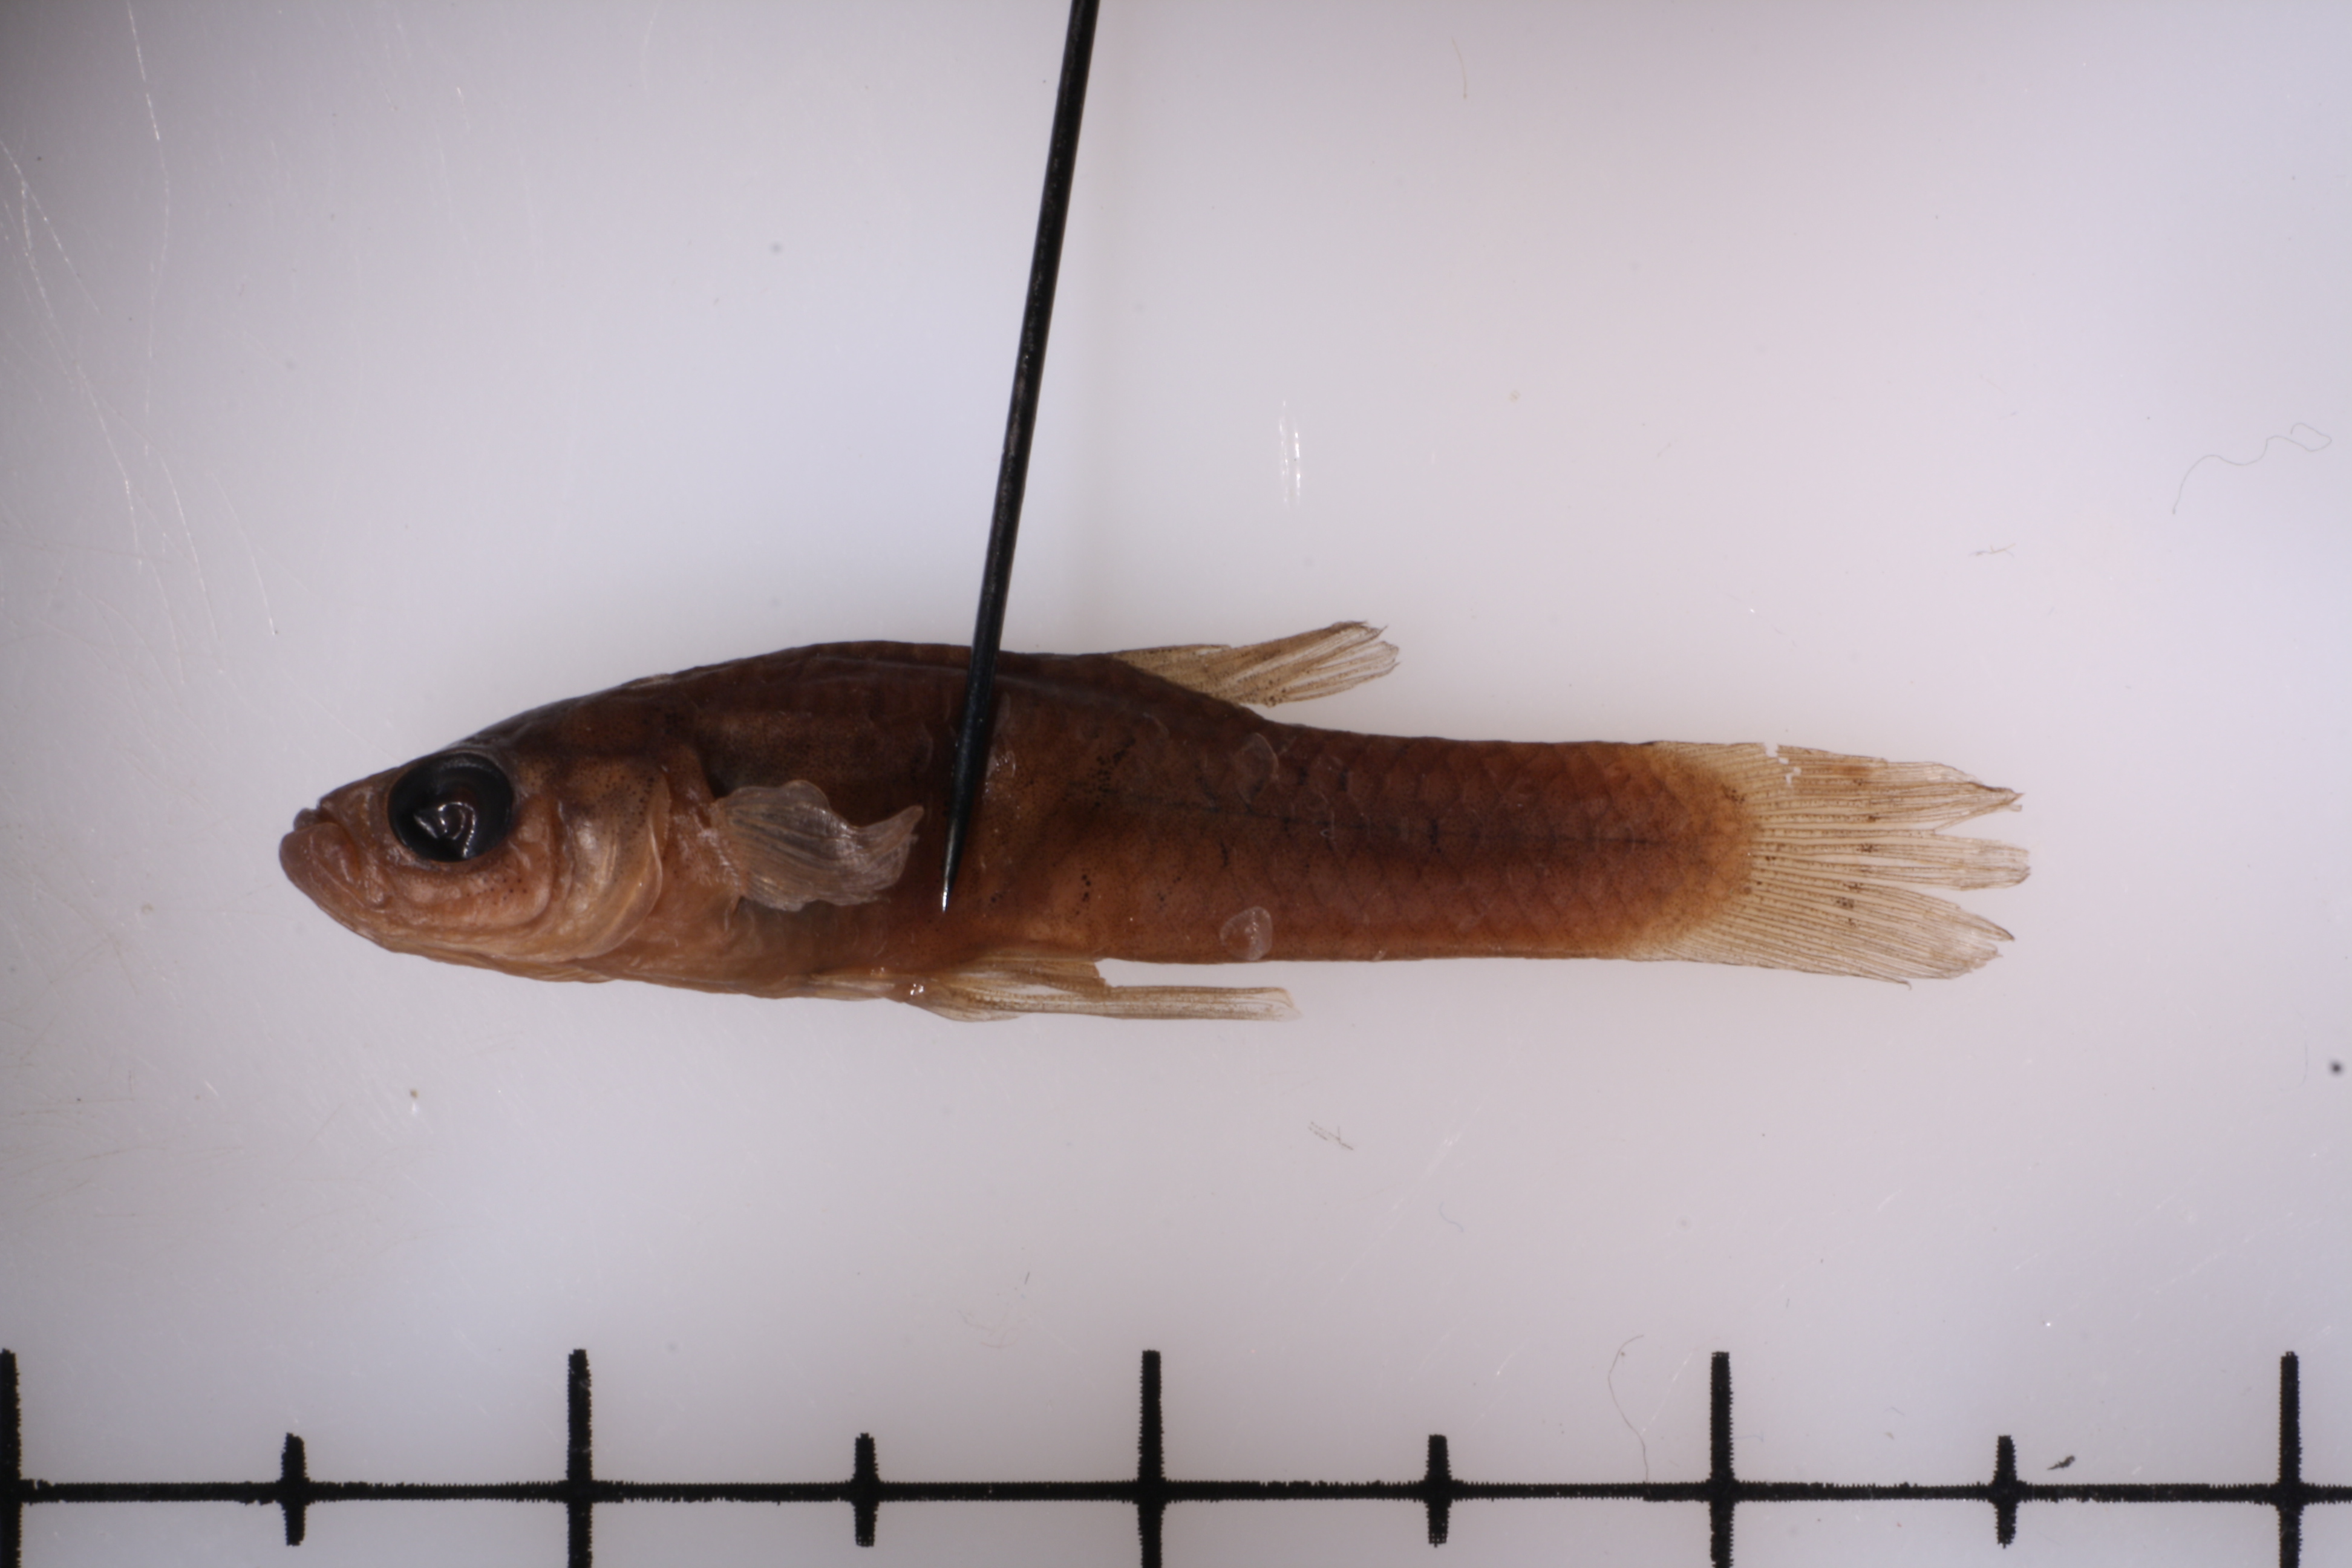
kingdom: Animalia
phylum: Chordata
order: Cyprinodontiformes
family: Poeciliidae
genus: Gambusia
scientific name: Gambusia heterochir
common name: Clear creek gambusia
